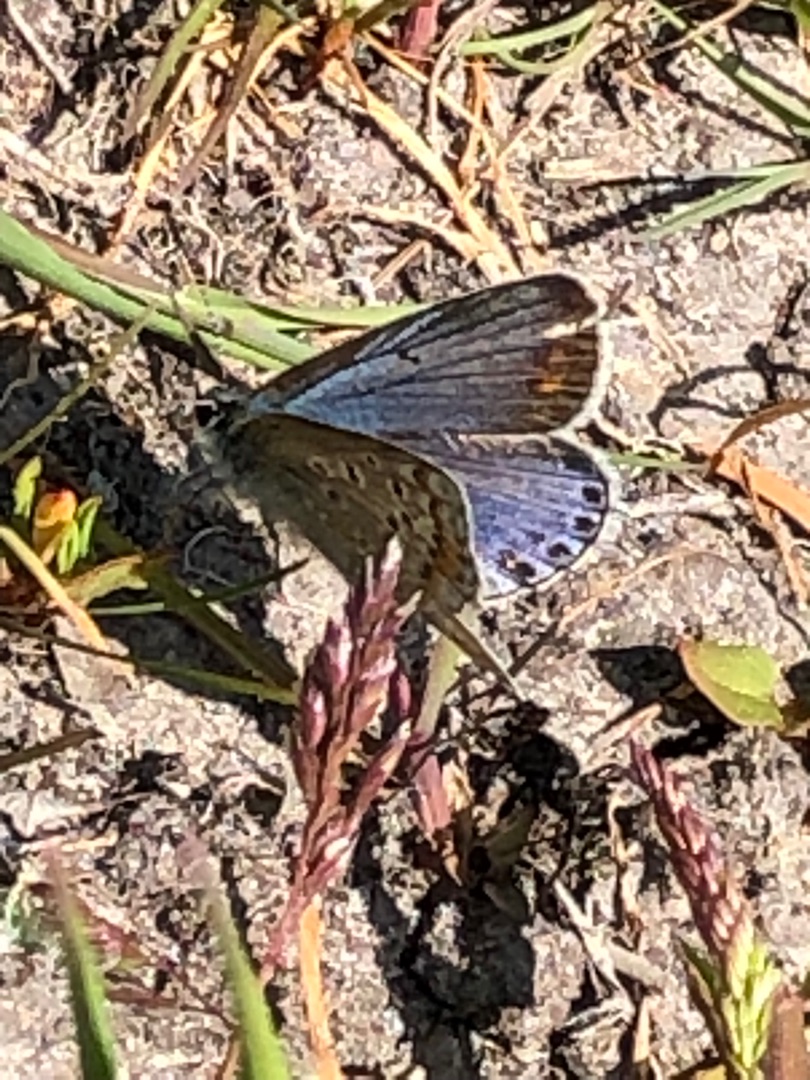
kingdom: Animalia
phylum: Arthropoda
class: Insecta
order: Lepidoptera
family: Lycaenidae
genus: Polyommatus
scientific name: Polyommatus icarus
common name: Almindelig blåfugl
